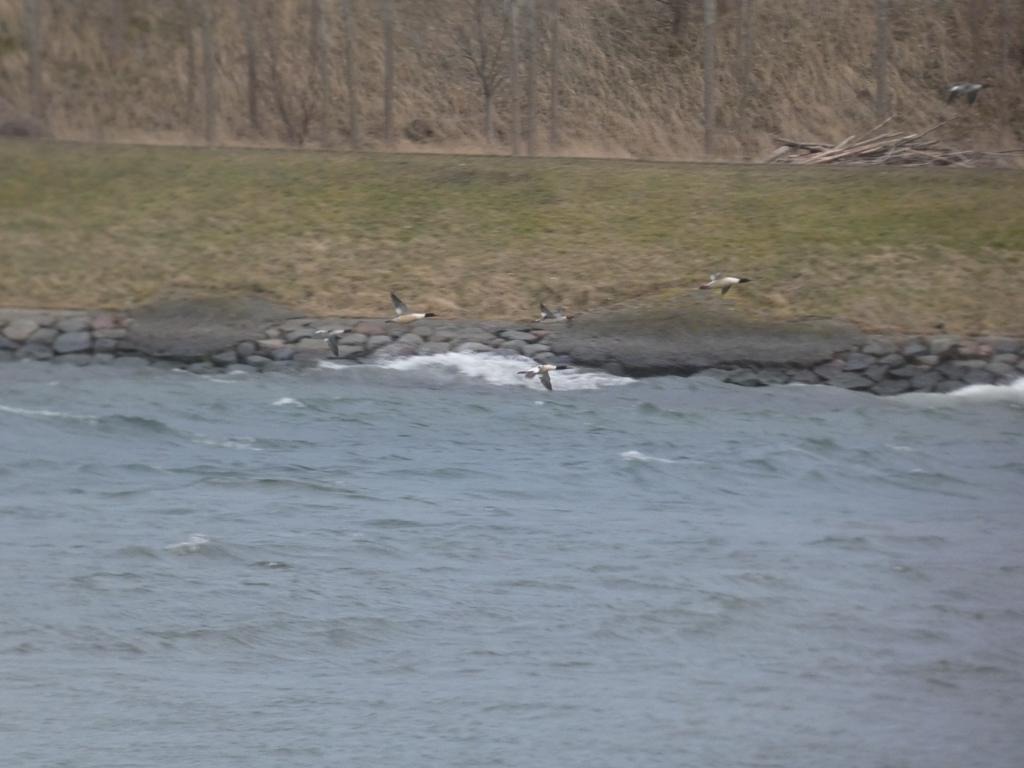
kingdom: Animalia
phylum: Chordata
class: Aves
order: Anseriformes
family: Anatidae
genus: Mergus
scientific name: Mergus merganser
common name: Stor skallesluger
